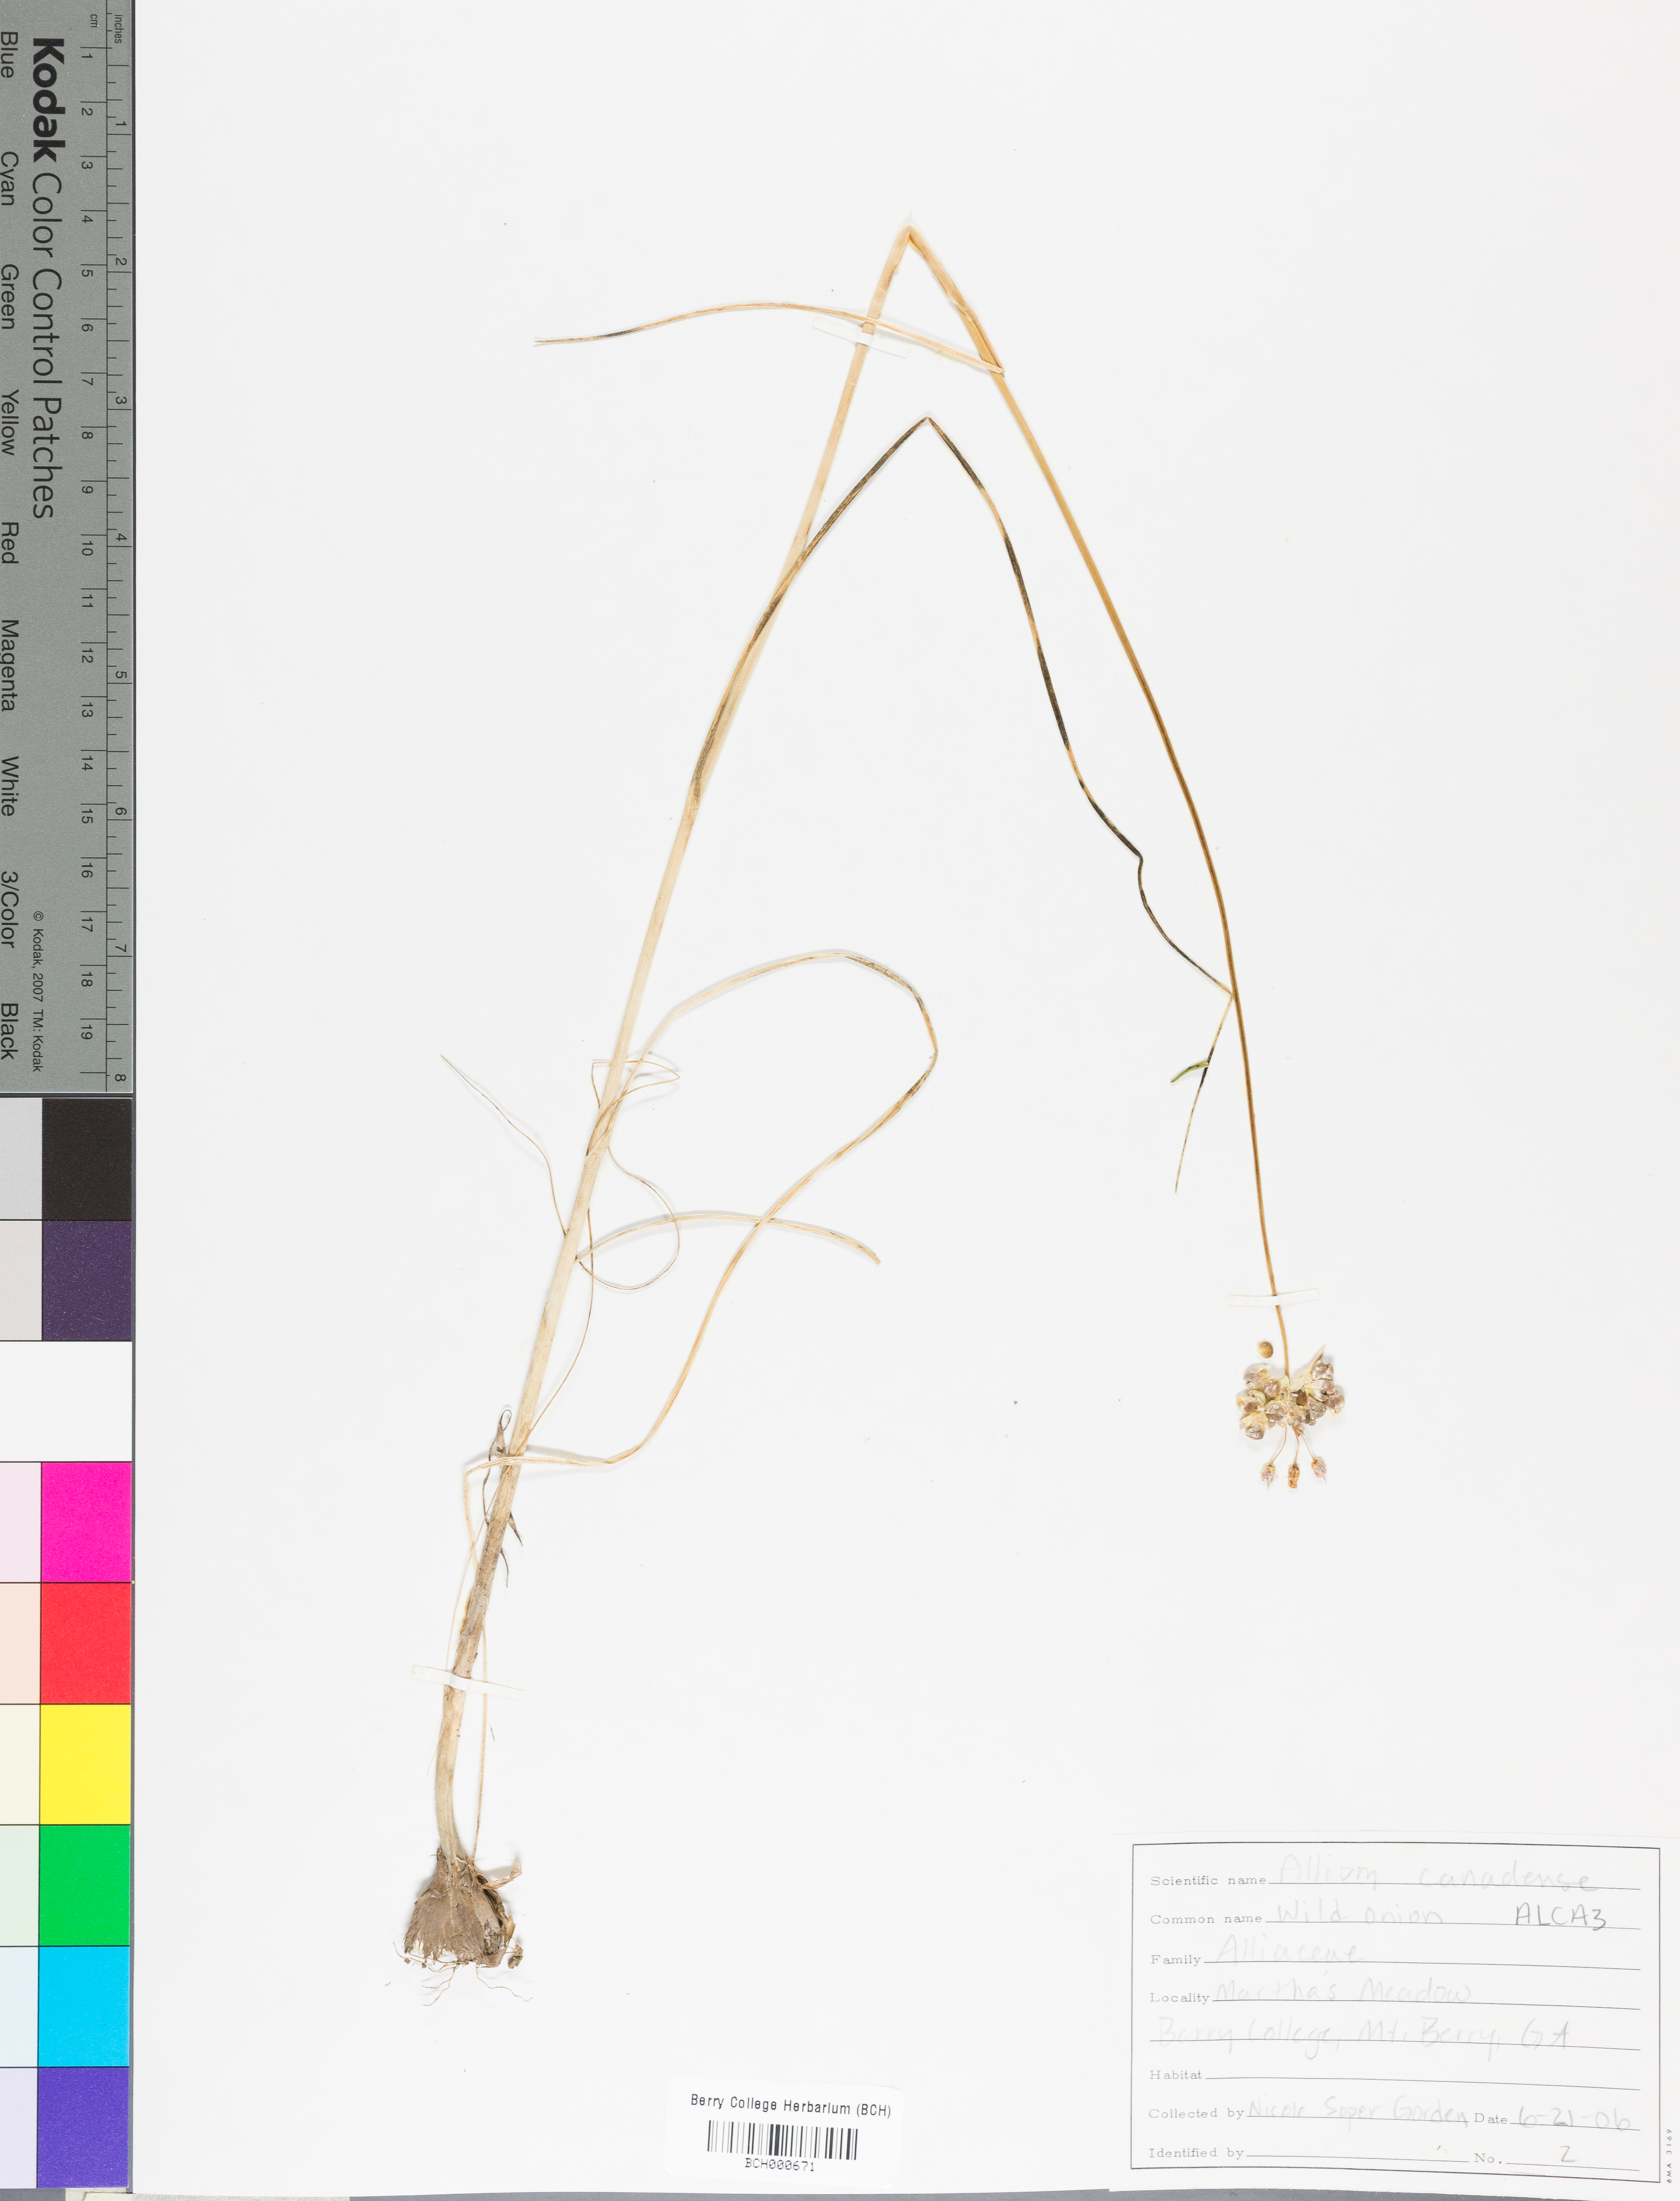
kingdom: Plantae
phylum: Tracheophyta
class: Liliopsida
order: Asparagales
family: Amaryllidaceae
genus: Allium
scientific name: Allium canadense
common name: Meadow garlic
